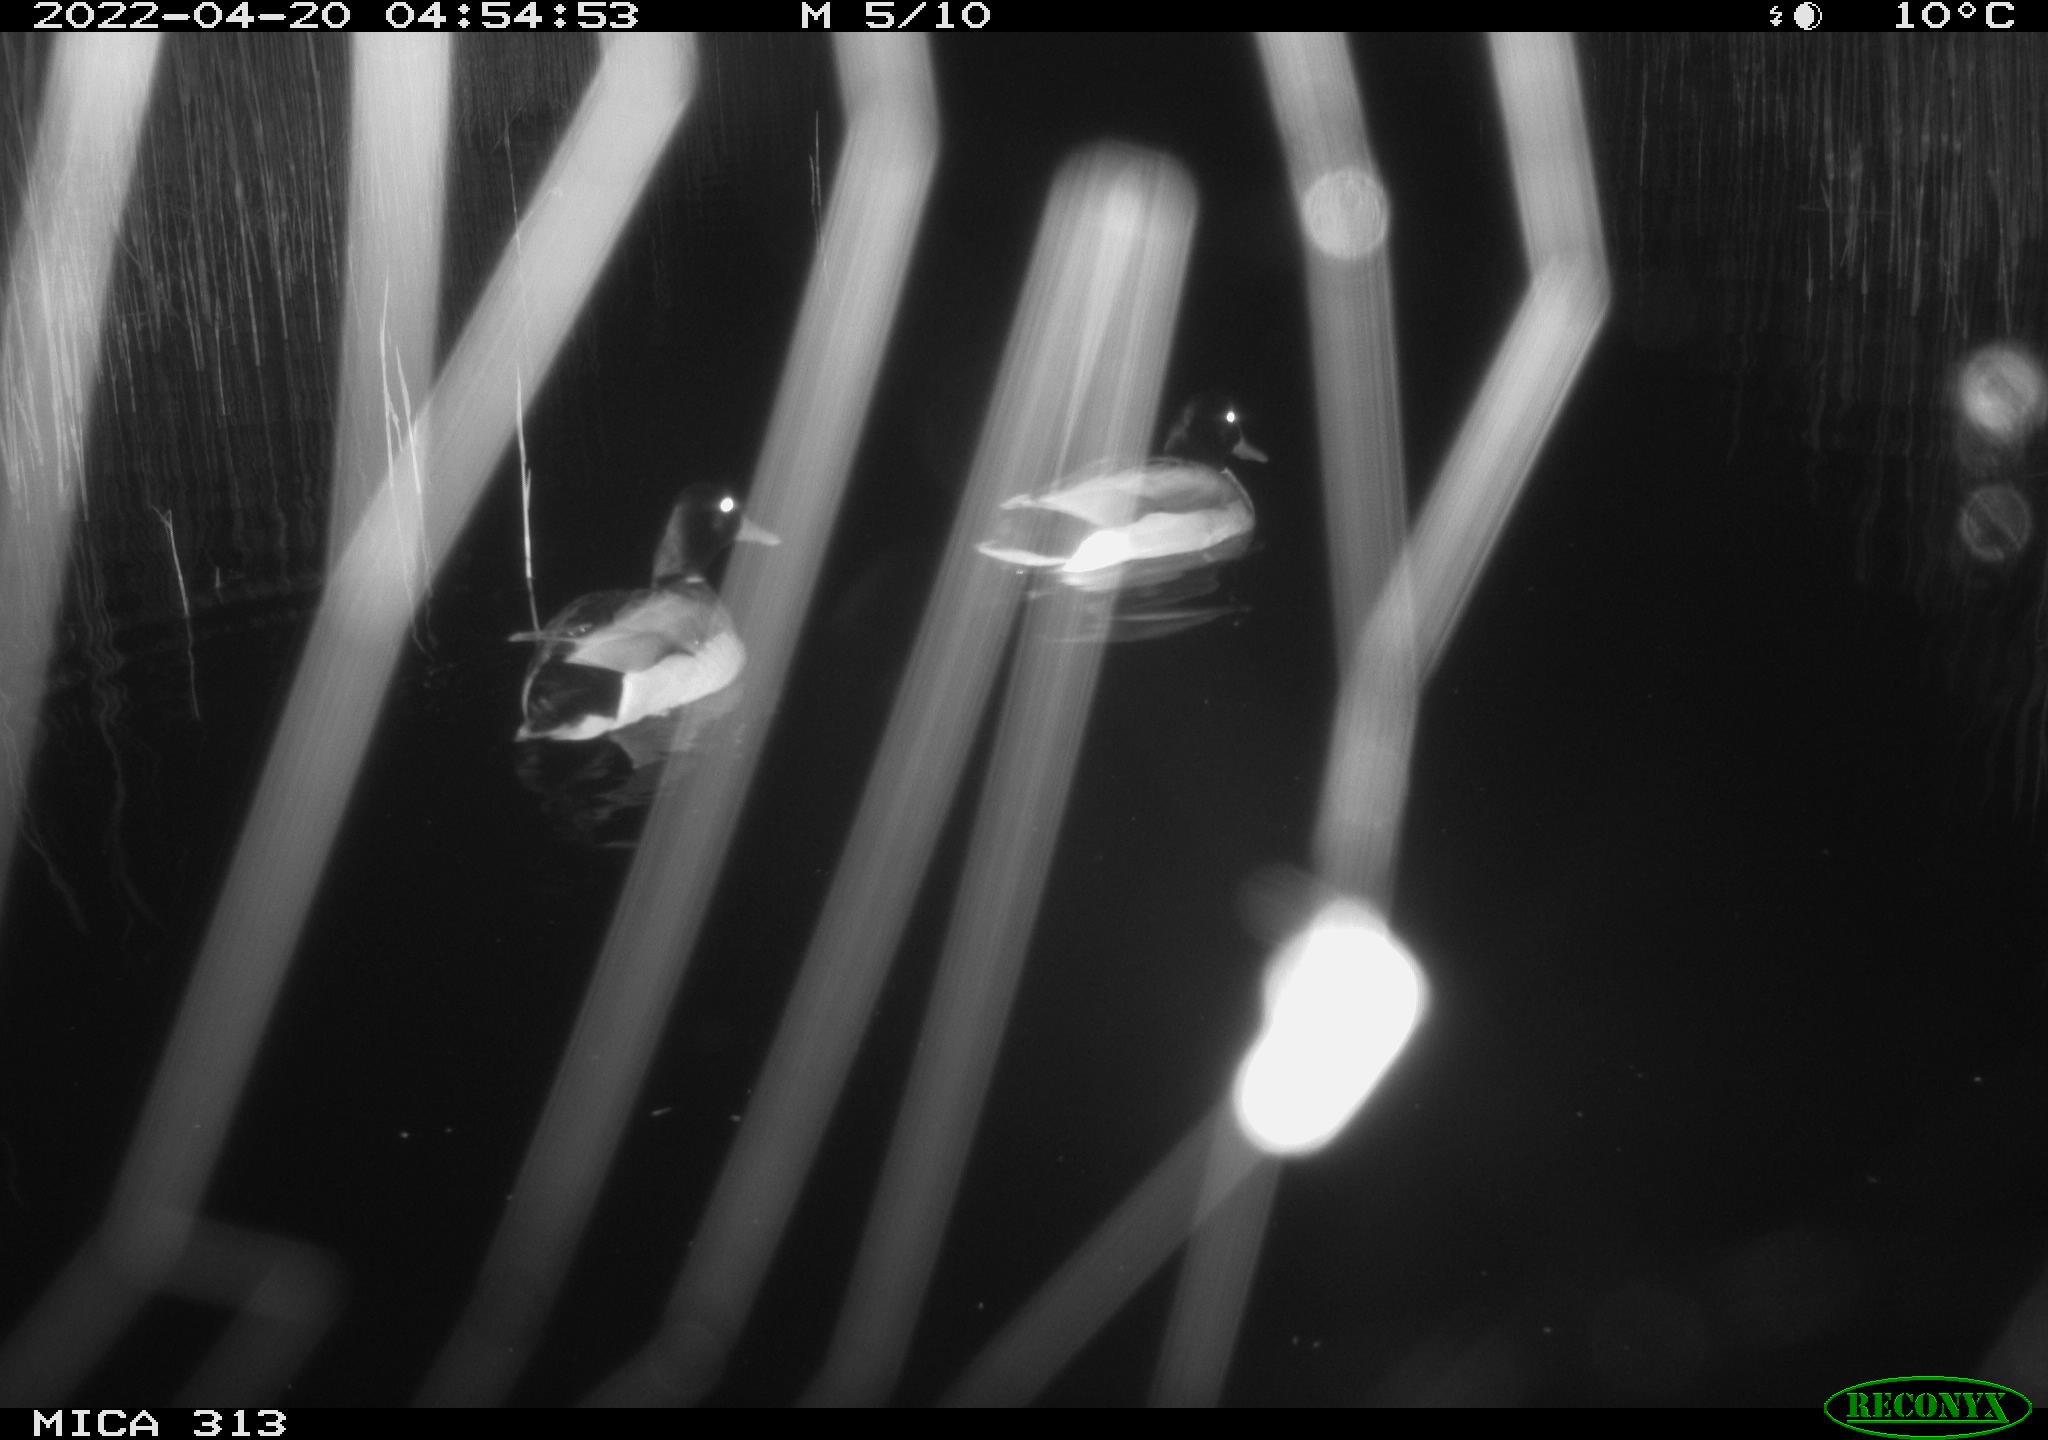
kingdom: Animalia
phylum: Chordata
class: Aves
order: Anseriformes
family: Anatidae
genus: Anas
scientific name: Anas platyrhynchos
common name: Mallard
